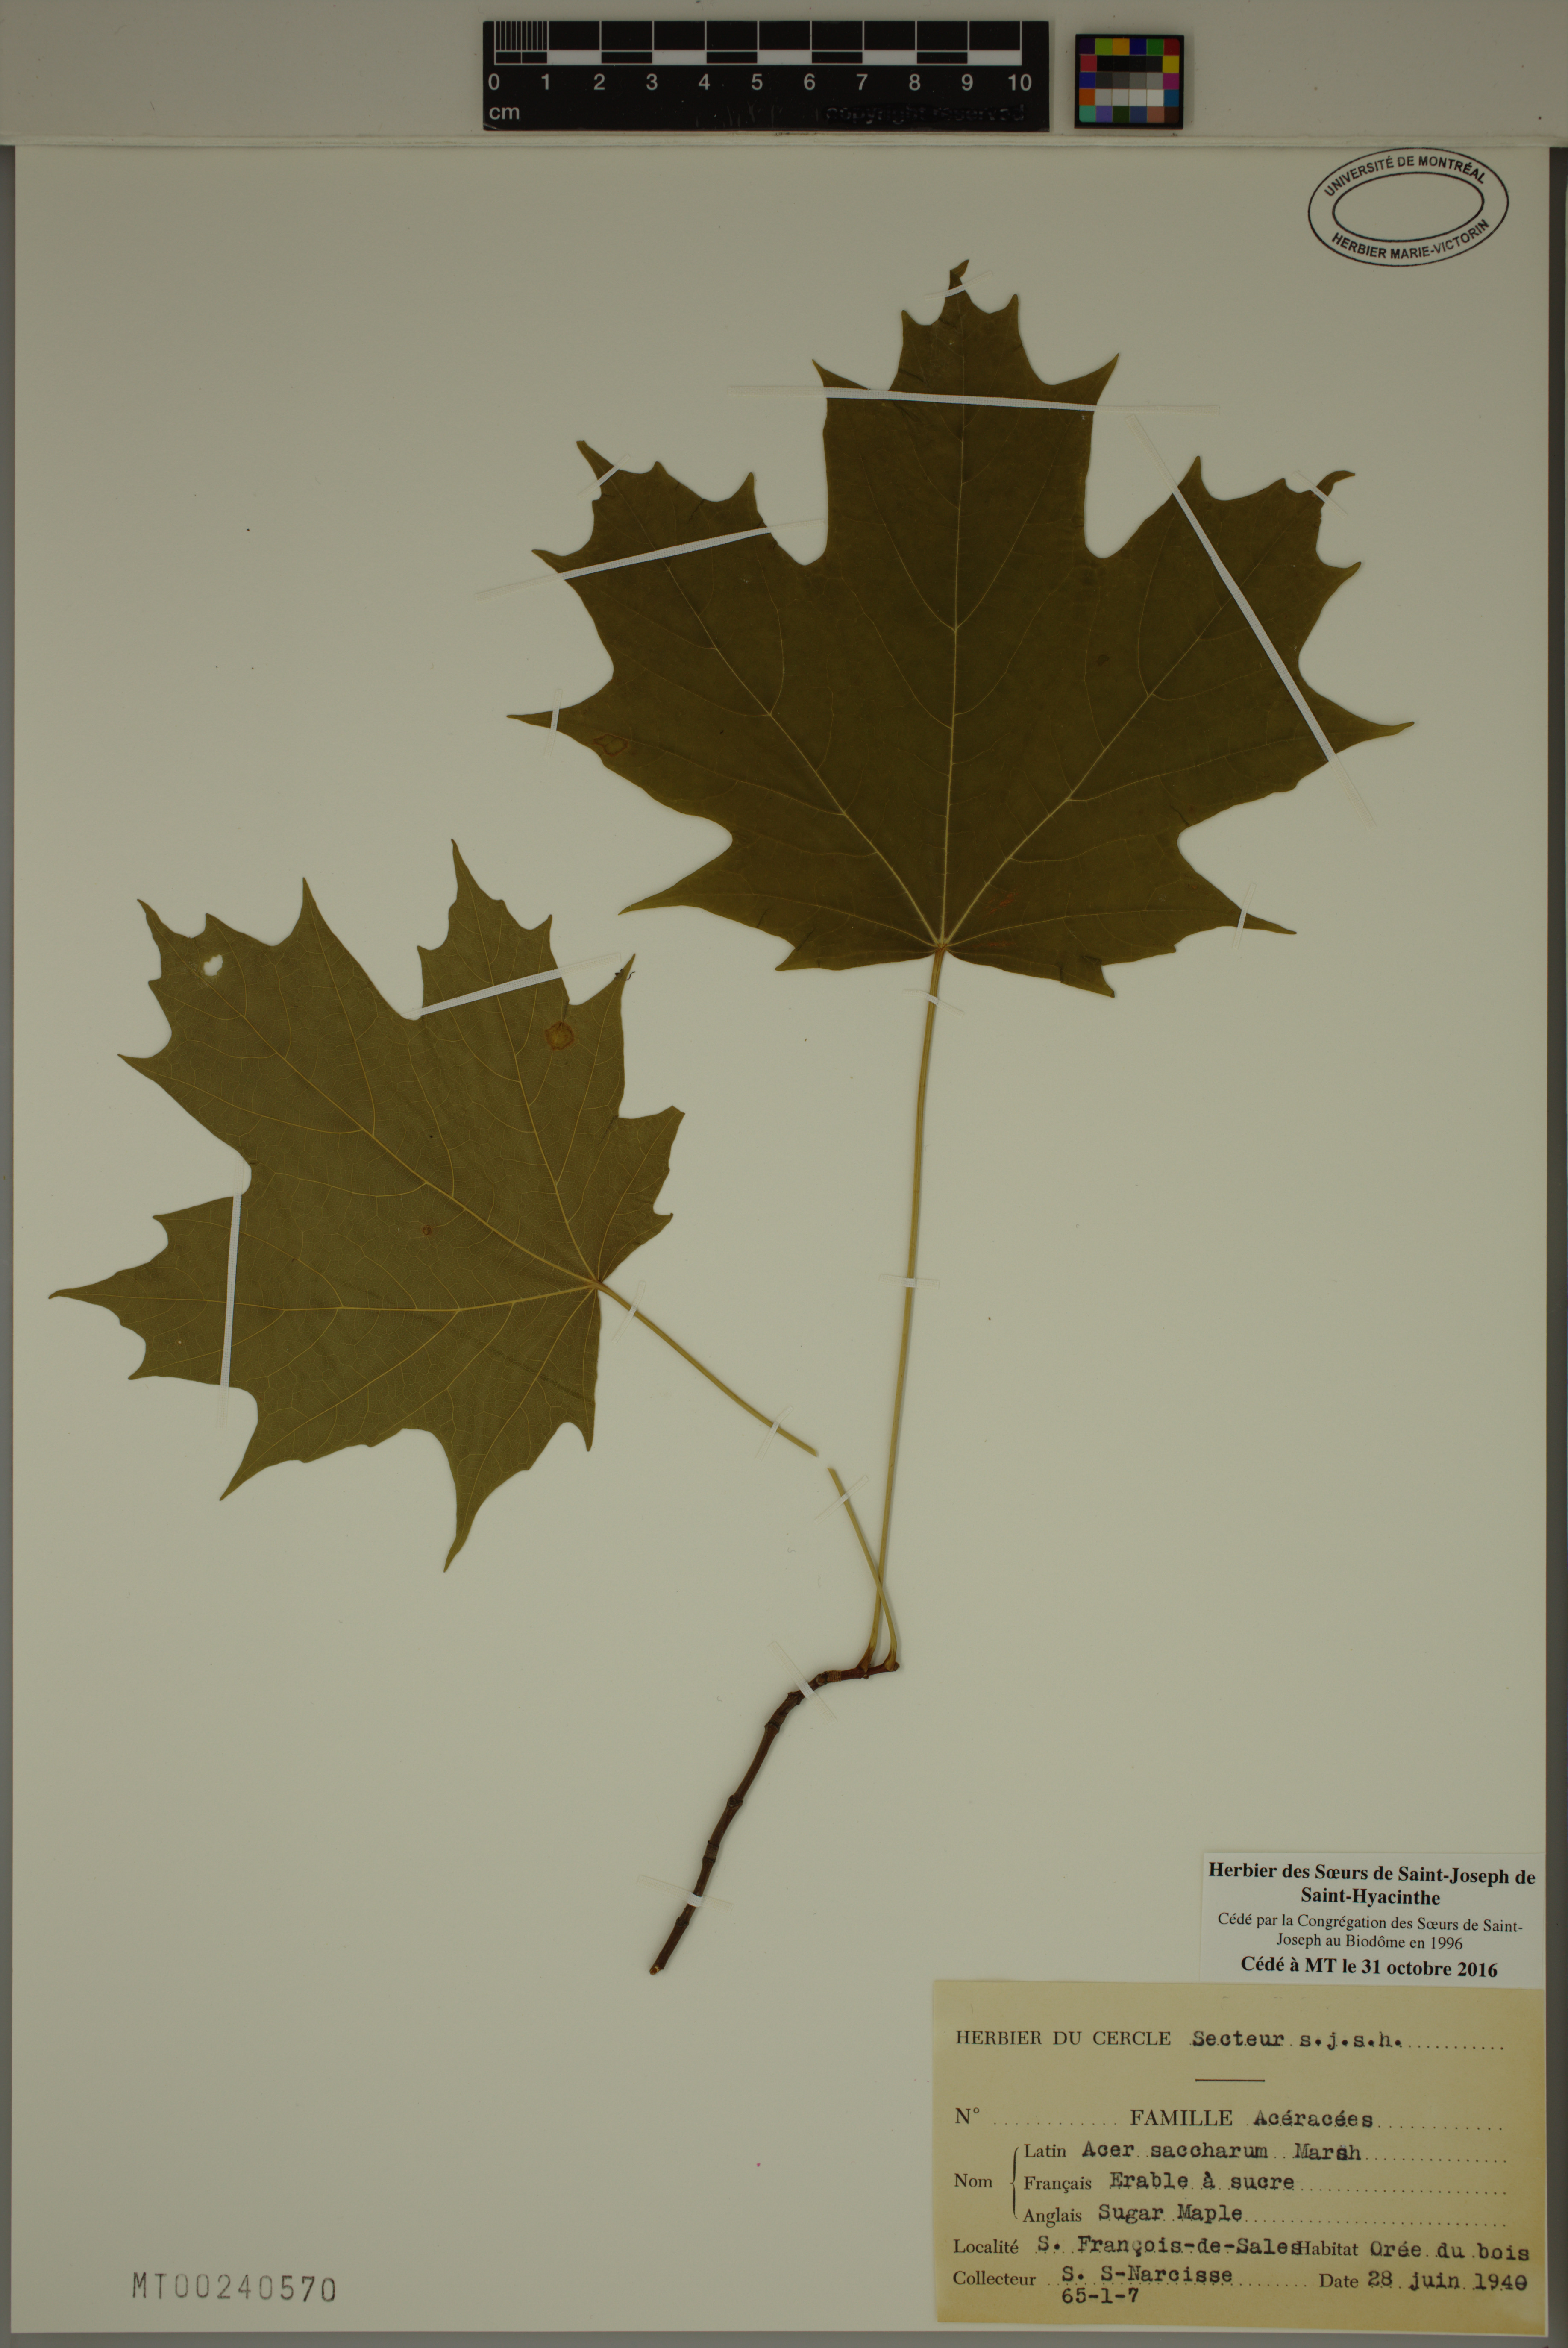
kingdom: Plantae
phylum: Tracheophyta
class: Magnoliopsida
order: Sapindales
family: Sapindaceae
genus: Acer
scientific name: Acer saccharum
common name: Sugar maple
